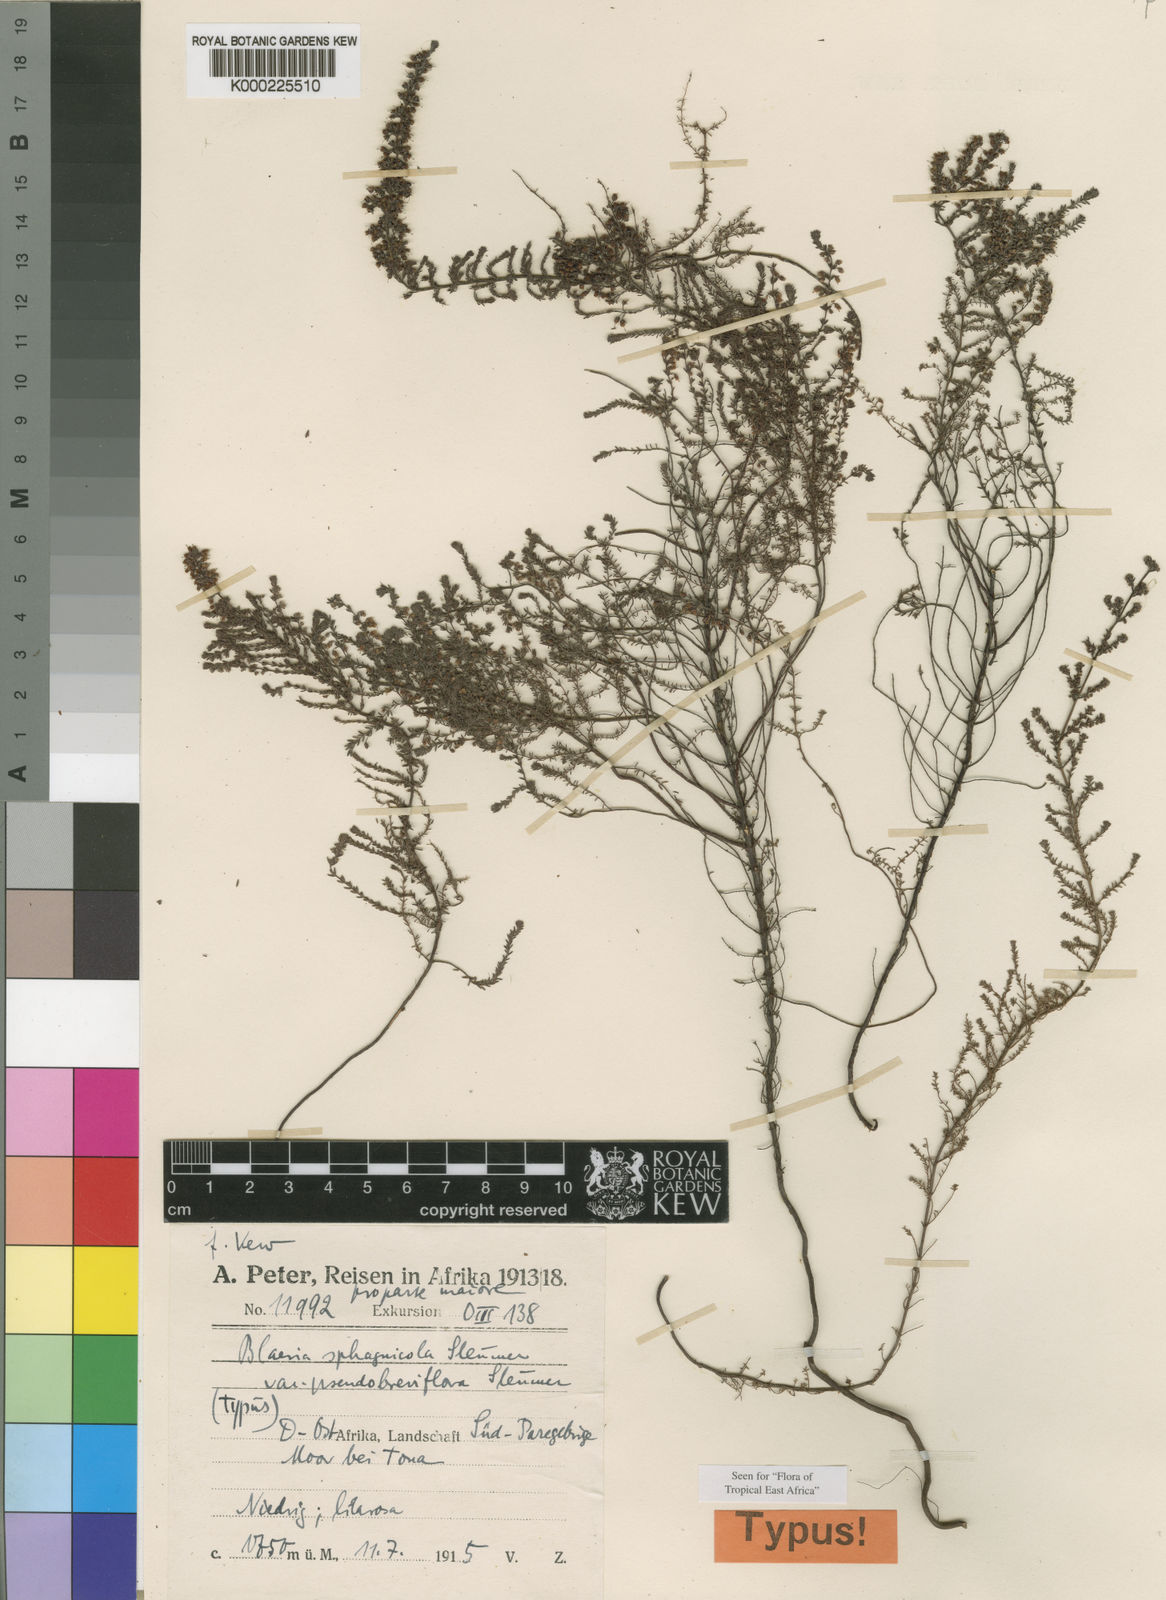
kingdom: Plantae
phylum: Tracheophyta
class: Magnoliopsida
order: Ericales
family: Ericaceae
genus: Erica
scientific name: Erica silvatica
